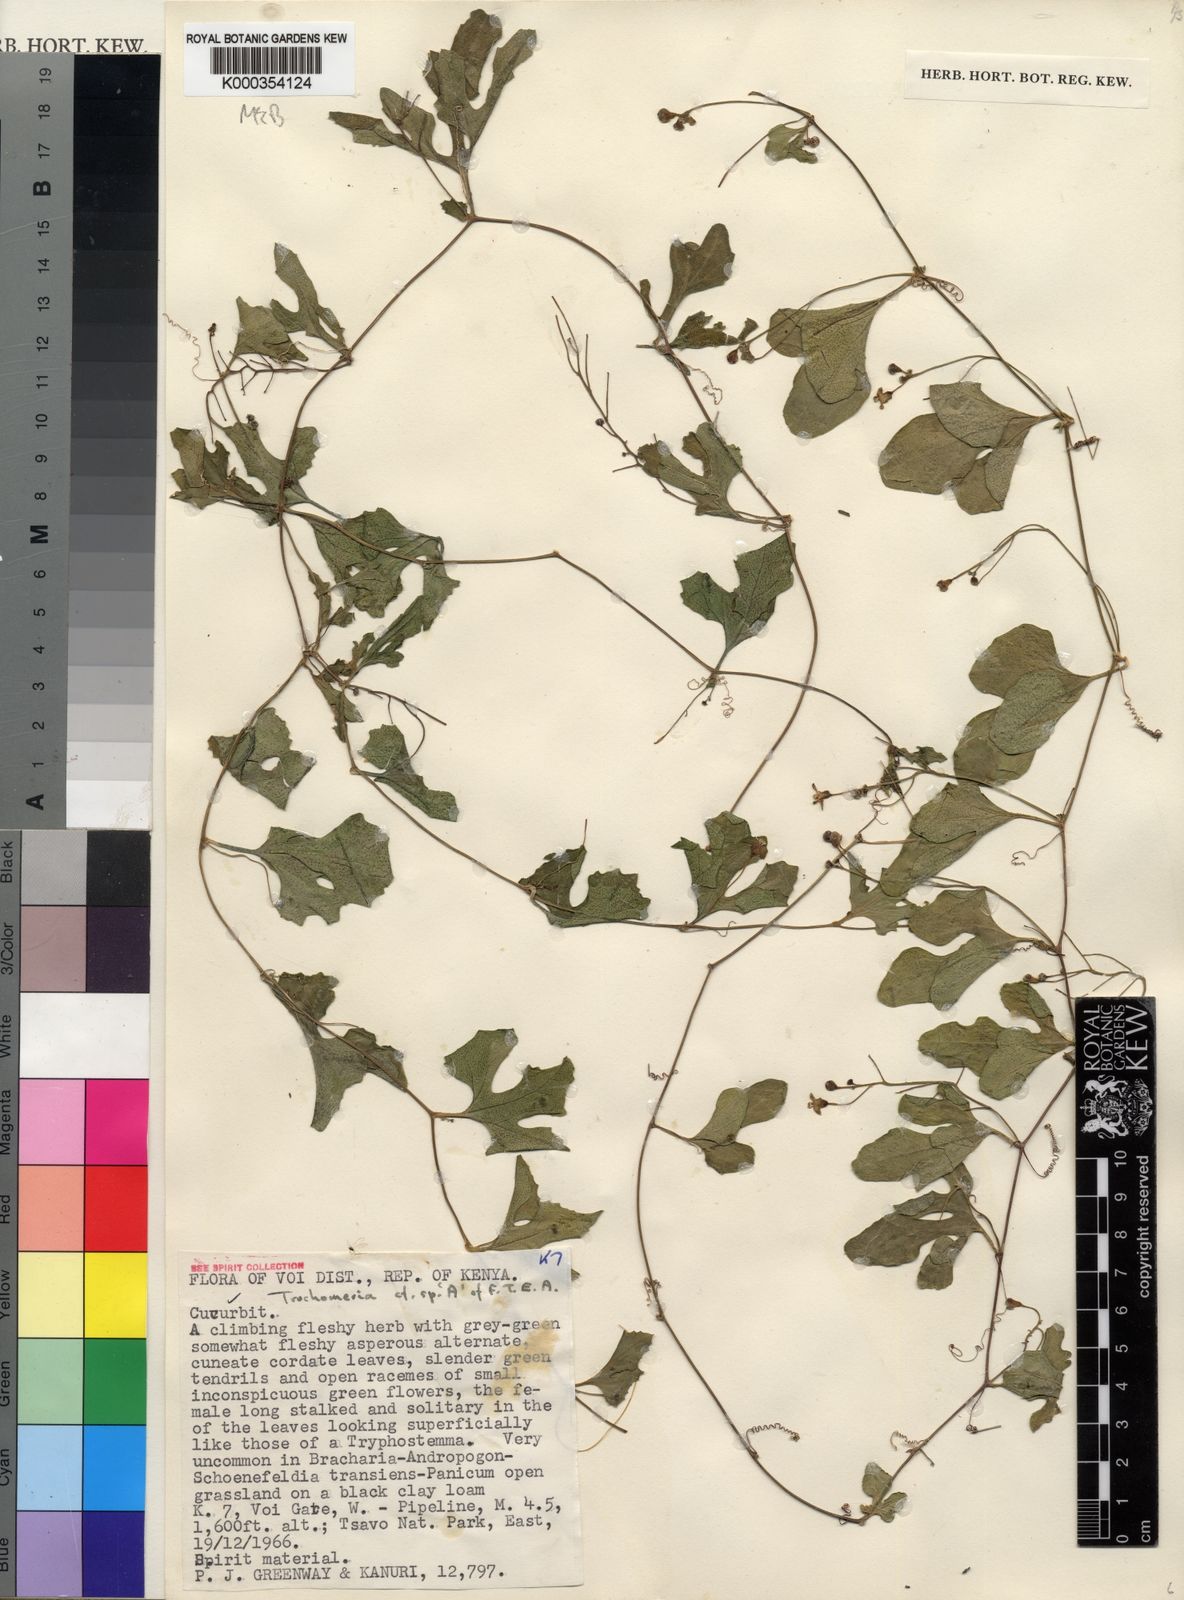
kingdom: Plantae
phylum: Tracheophyta
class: Magnoliopsida
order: Cucurbitales
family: Cucurbitaceae
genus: Trochomeria
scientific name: Trochomeria nigrescens
